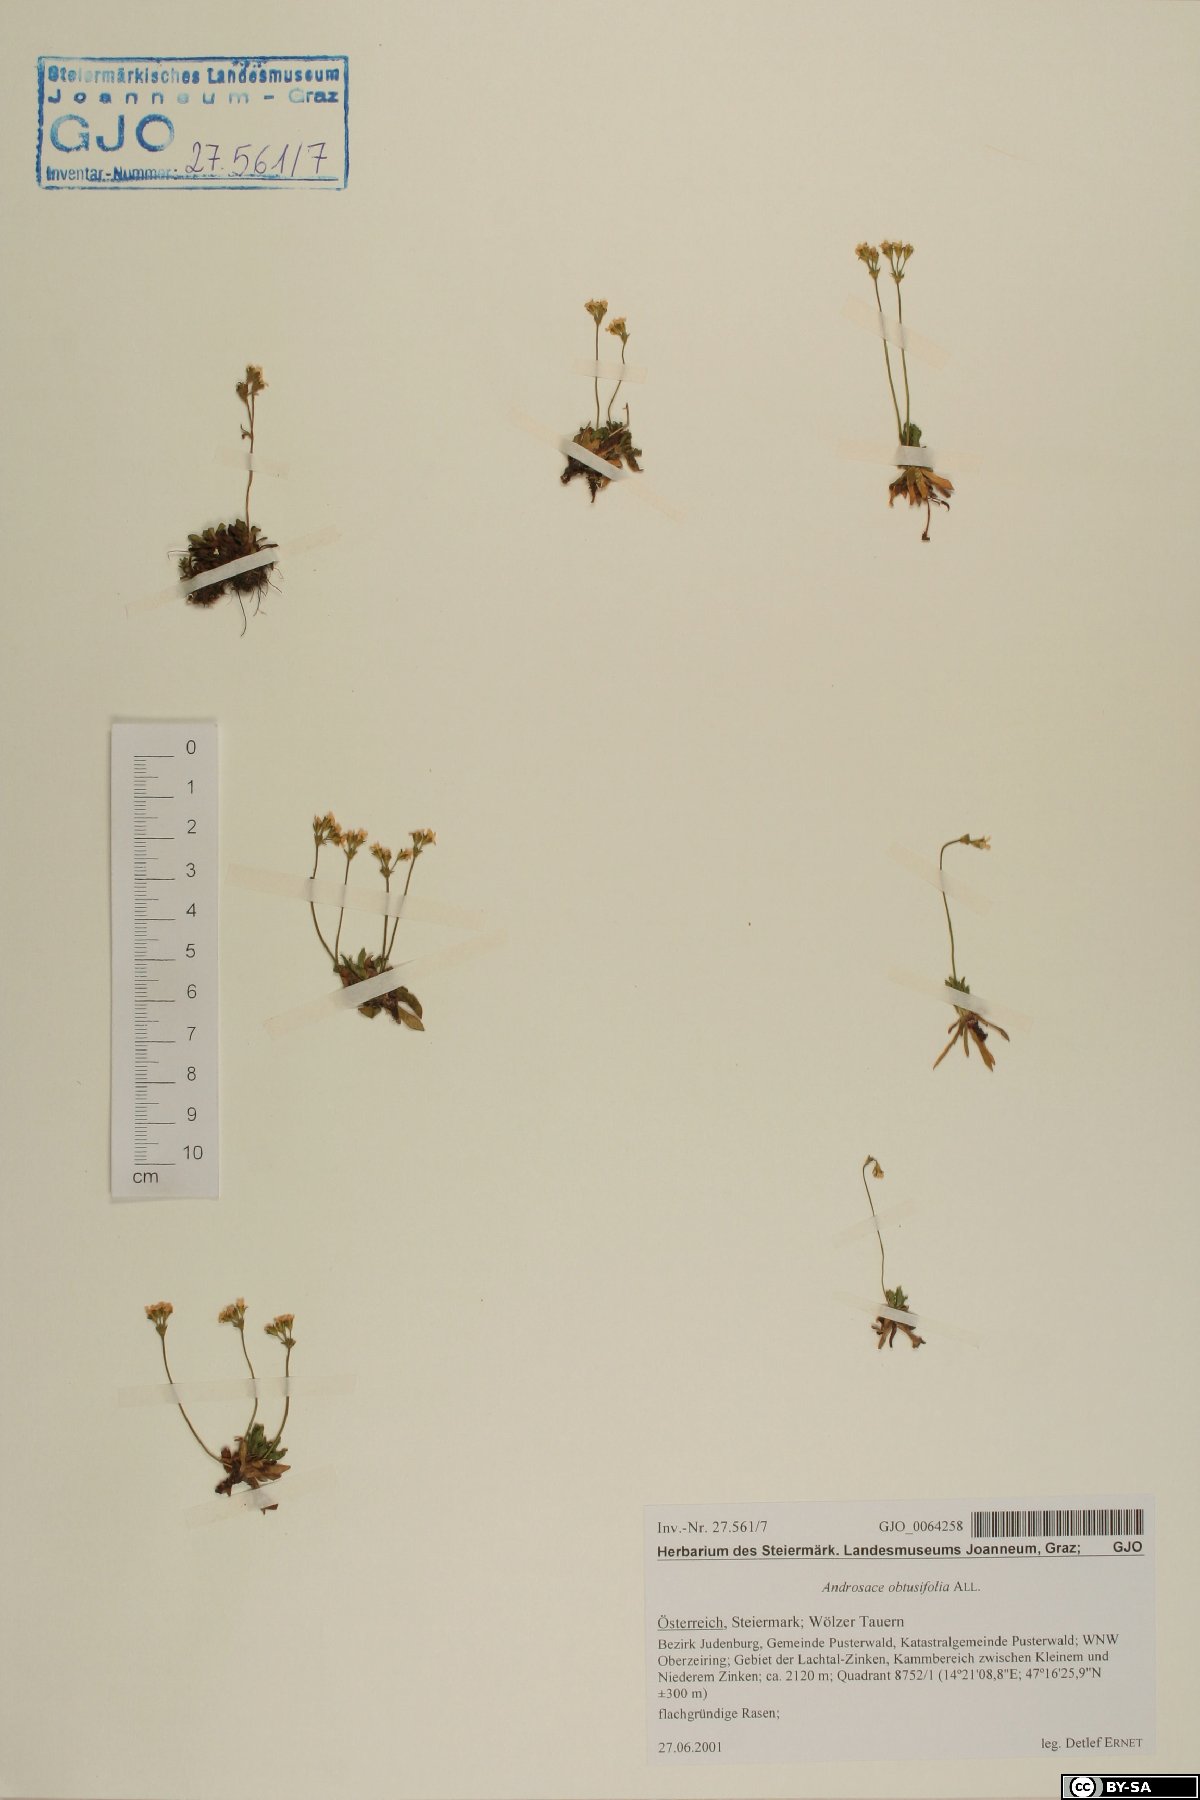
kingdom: Plantae
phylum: Tracheophyta
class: Magnoliopsida
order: Ericales
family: Primulaceae
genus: Androsace
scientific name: Androsace obtusifolia
